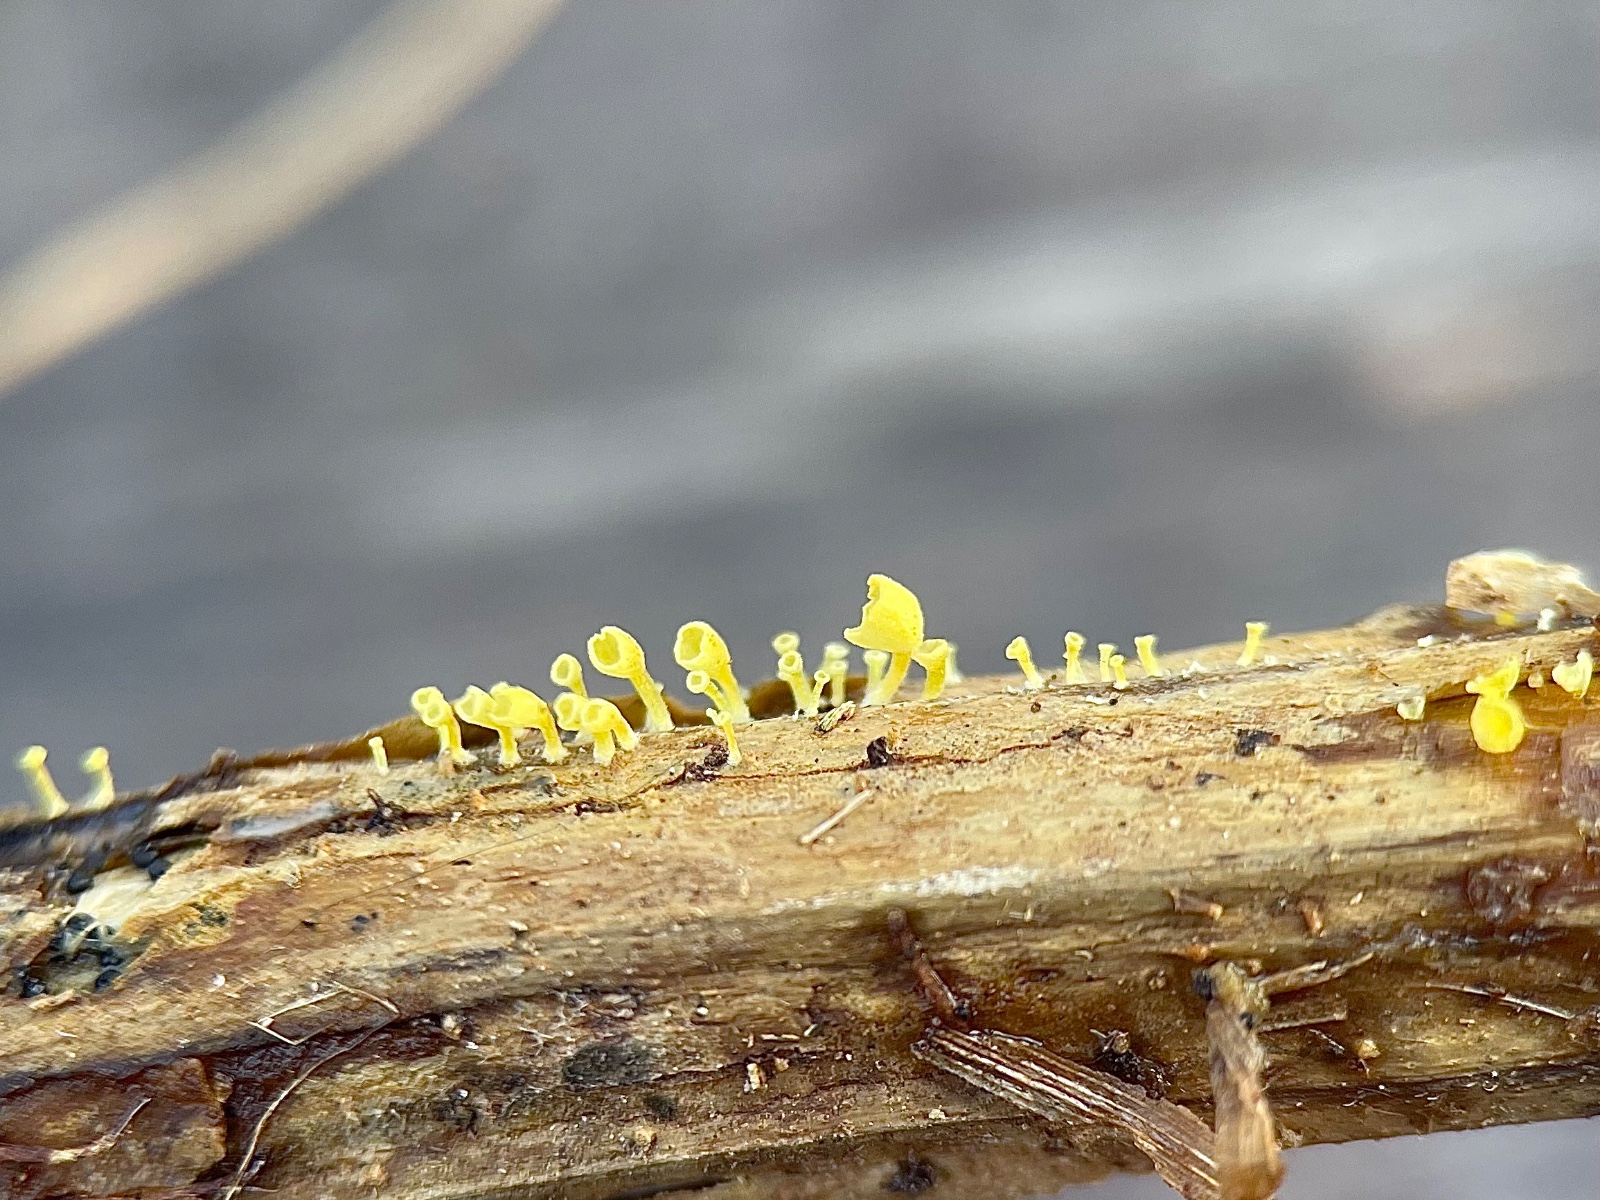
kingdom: Fungi
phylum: Basidiomycota
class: Agaricomycetes
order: Agaricales
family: Marasmiaceae
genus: Calyptella
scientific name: Calyptella campanula
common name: gul nældehue
